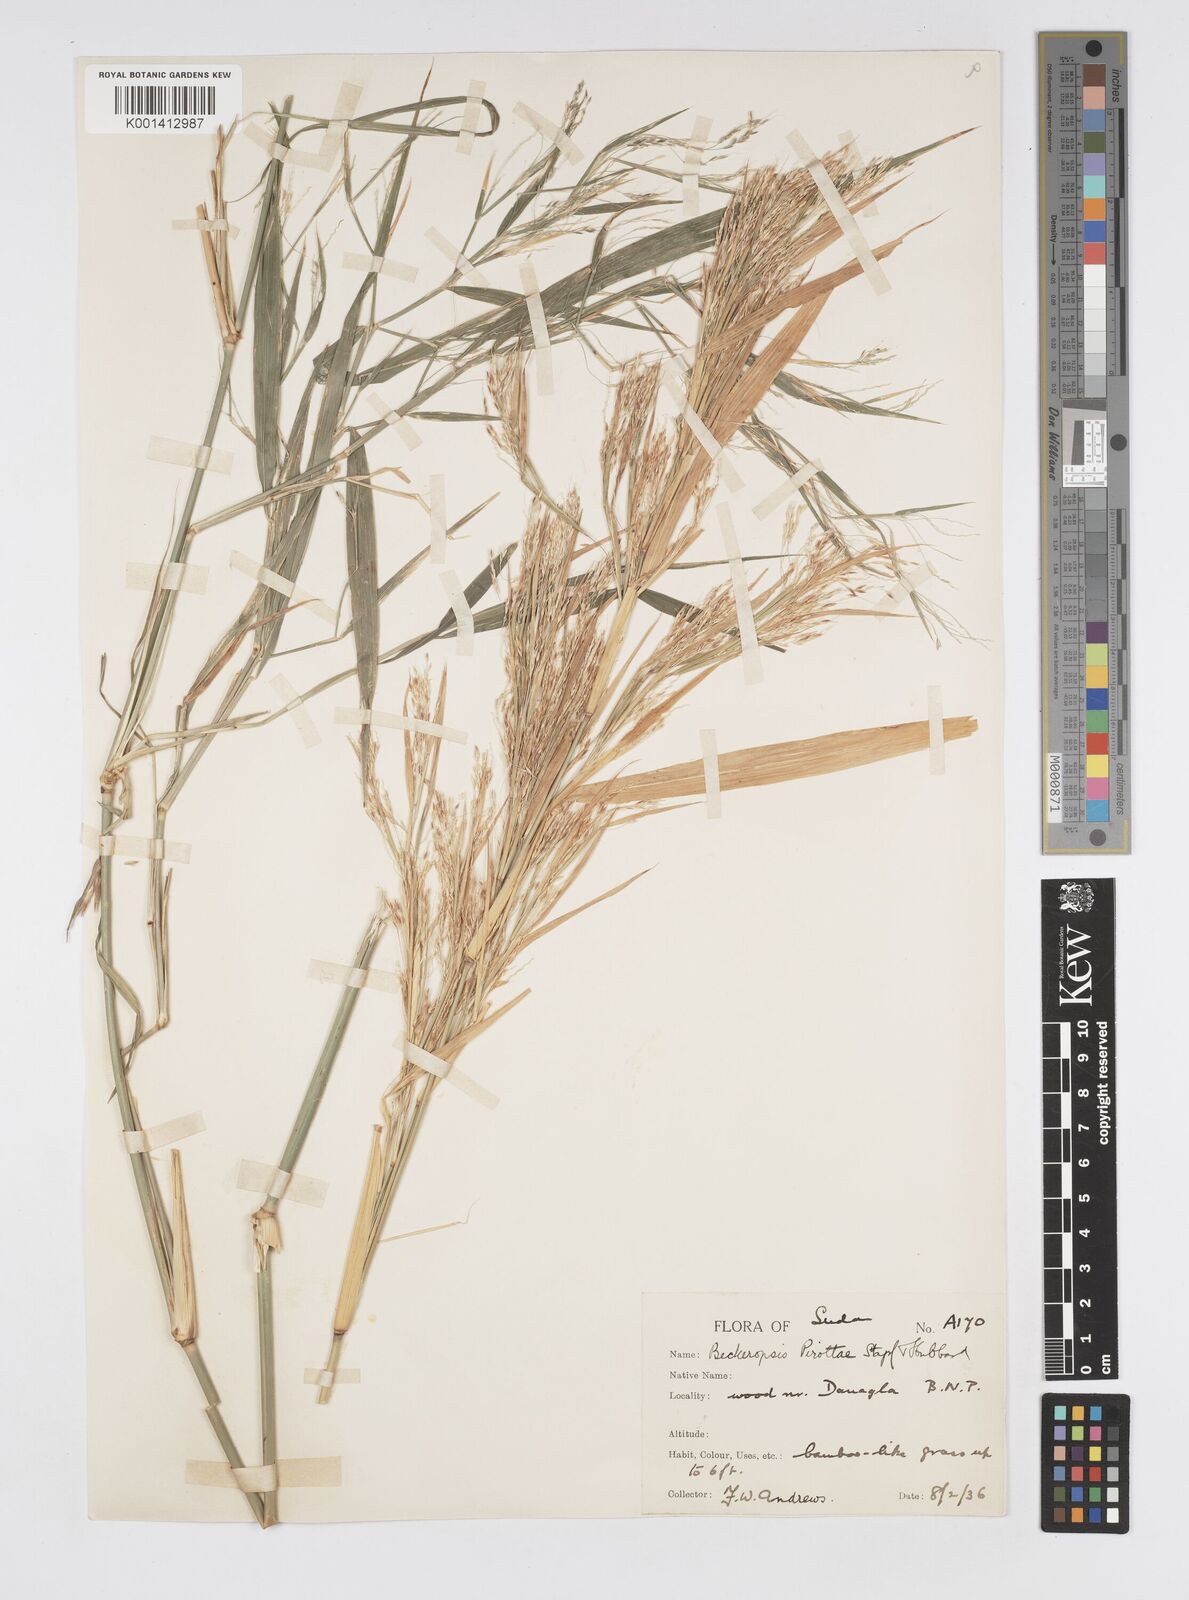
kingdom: Plantae
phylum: Tracheophyta
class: Liliopsida
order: Poales
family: Poaceae
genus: Cenchrus
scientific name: Cenchrus pirottae
